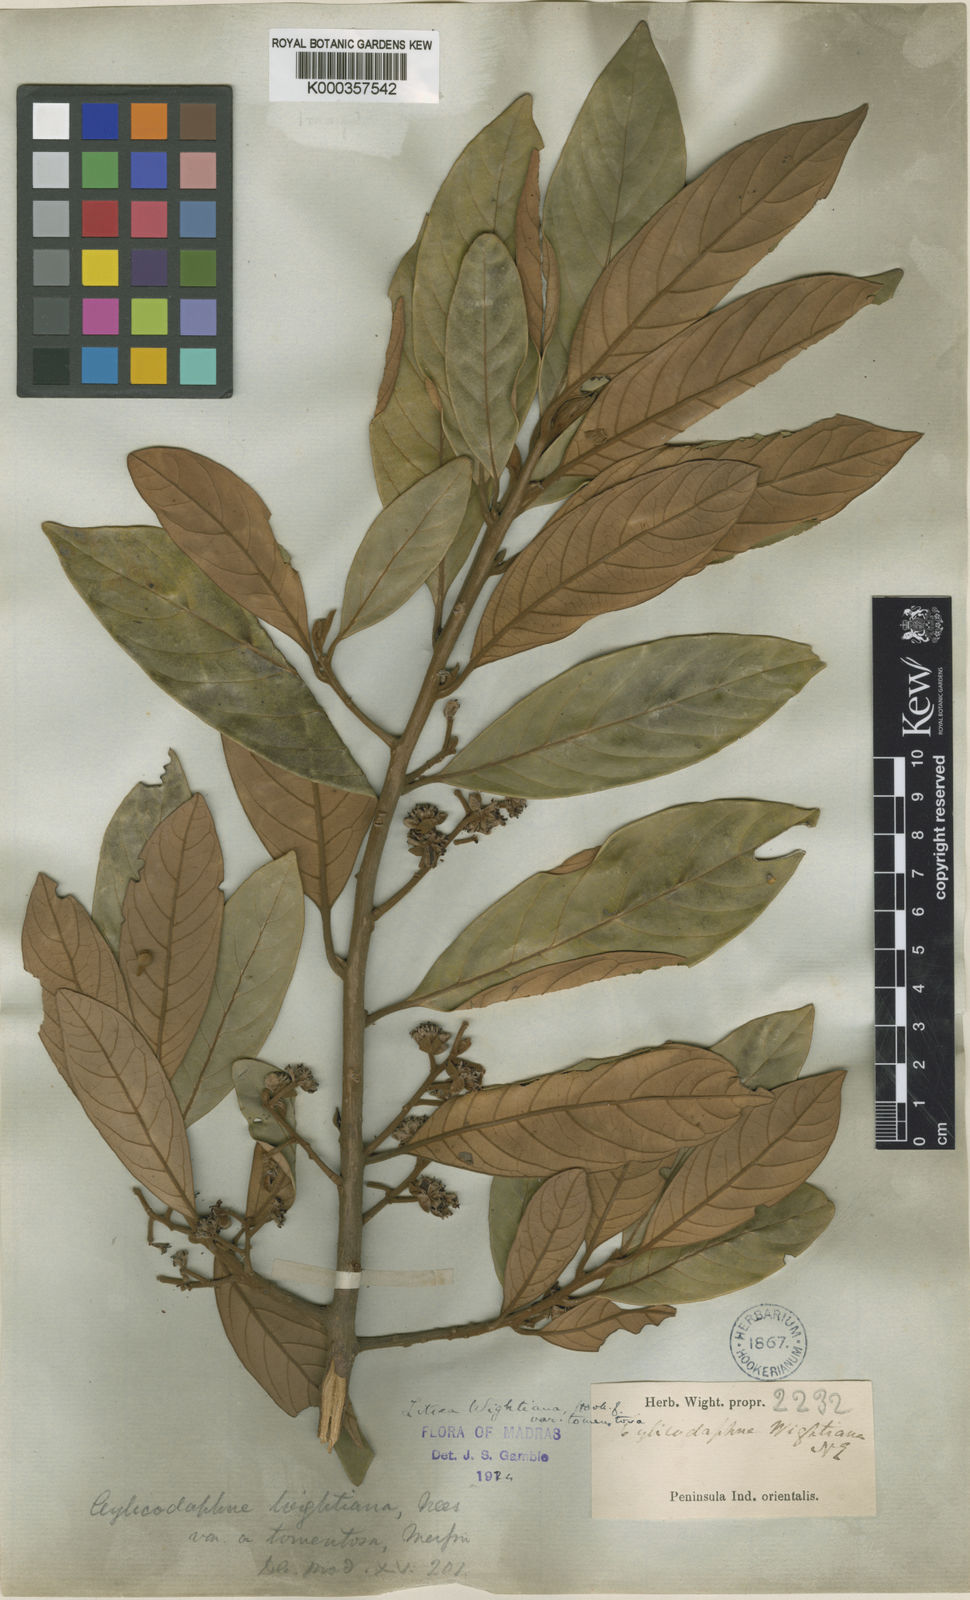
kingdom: Plantae
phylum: Tracheophyta
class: Magnoliopsida
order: Laurales
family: Lauraceae
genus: Litsea
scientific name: Litsea wightiana
